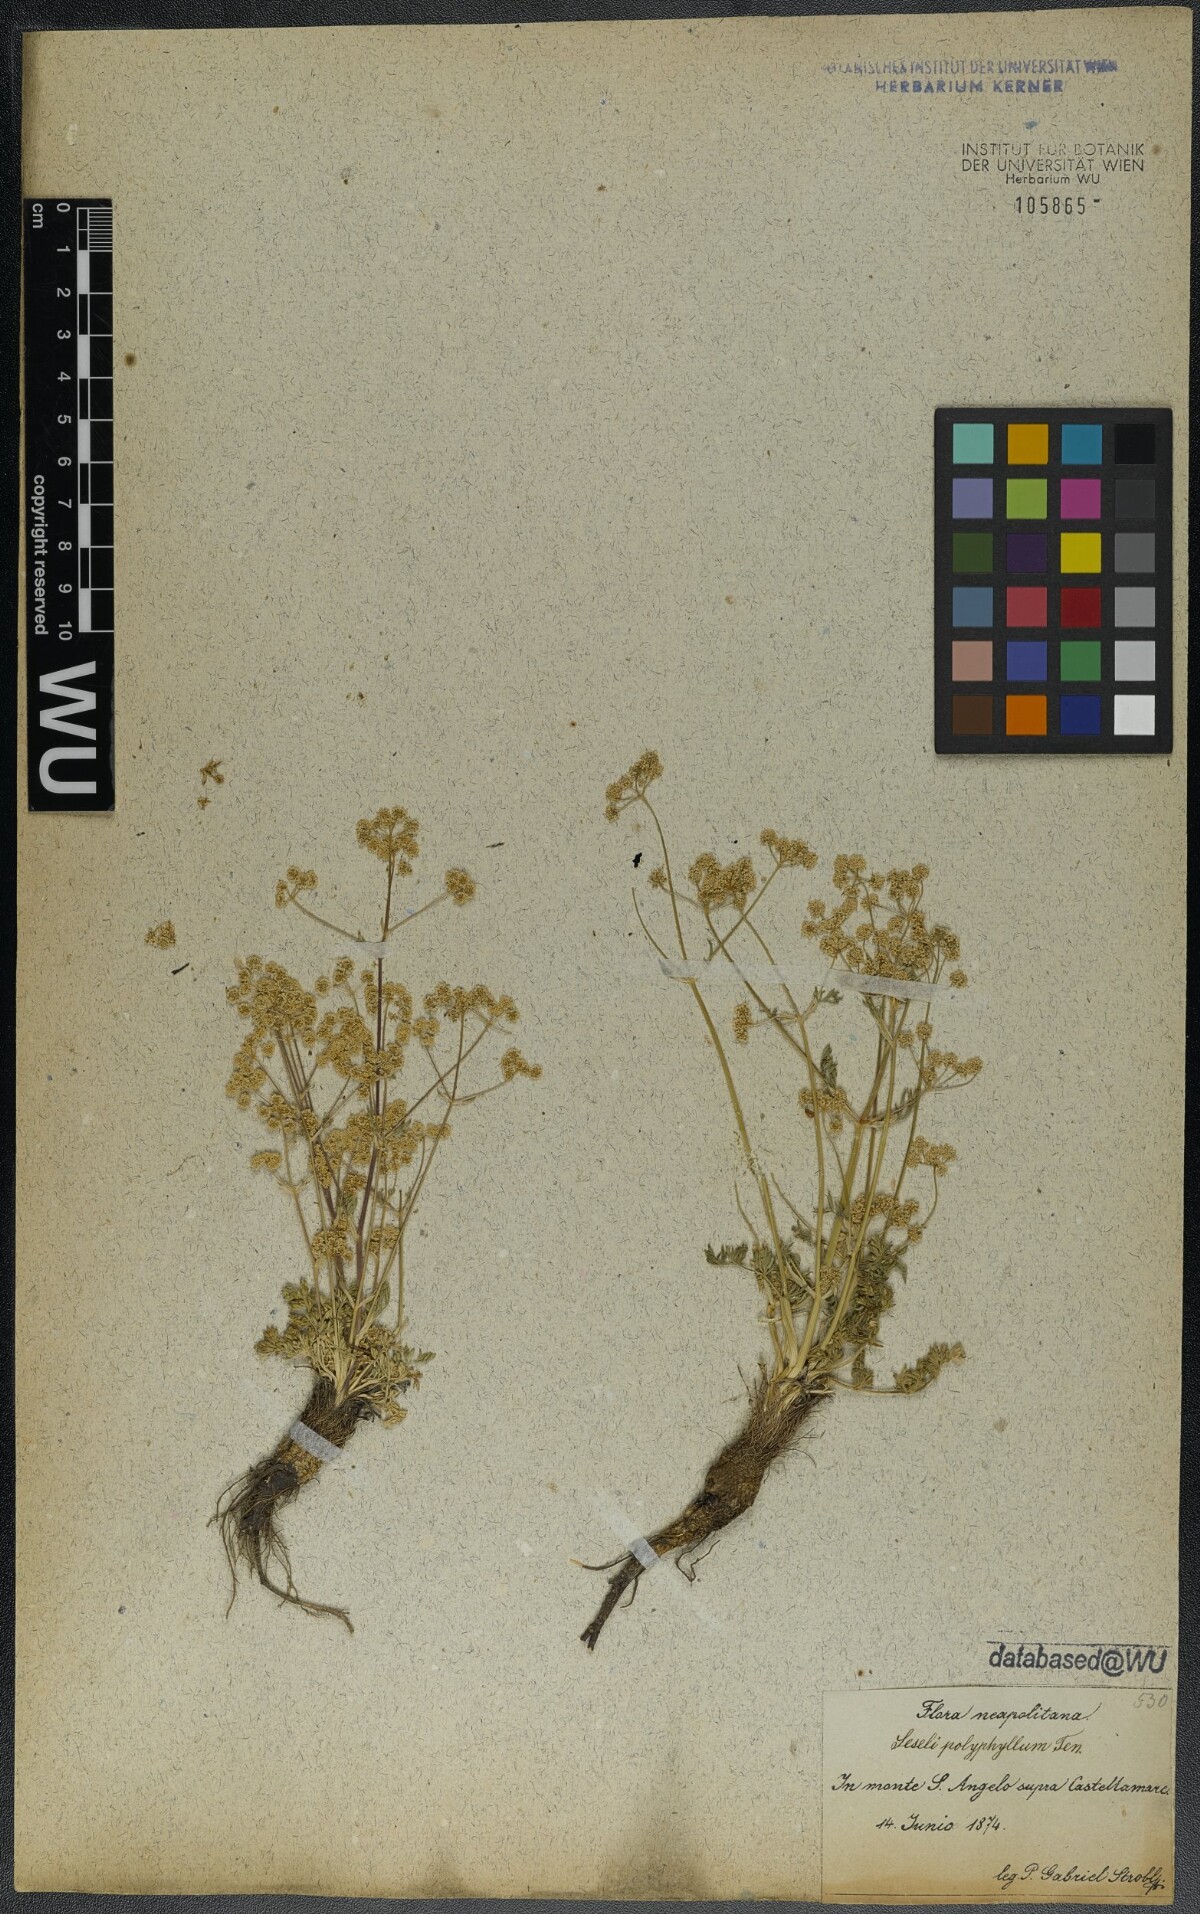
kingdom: Plantae
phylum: Tracheophyta
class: Magnoliopsida
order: Apiales
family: Apiaceae
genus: Trinia
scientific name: Trinia dalechampii
